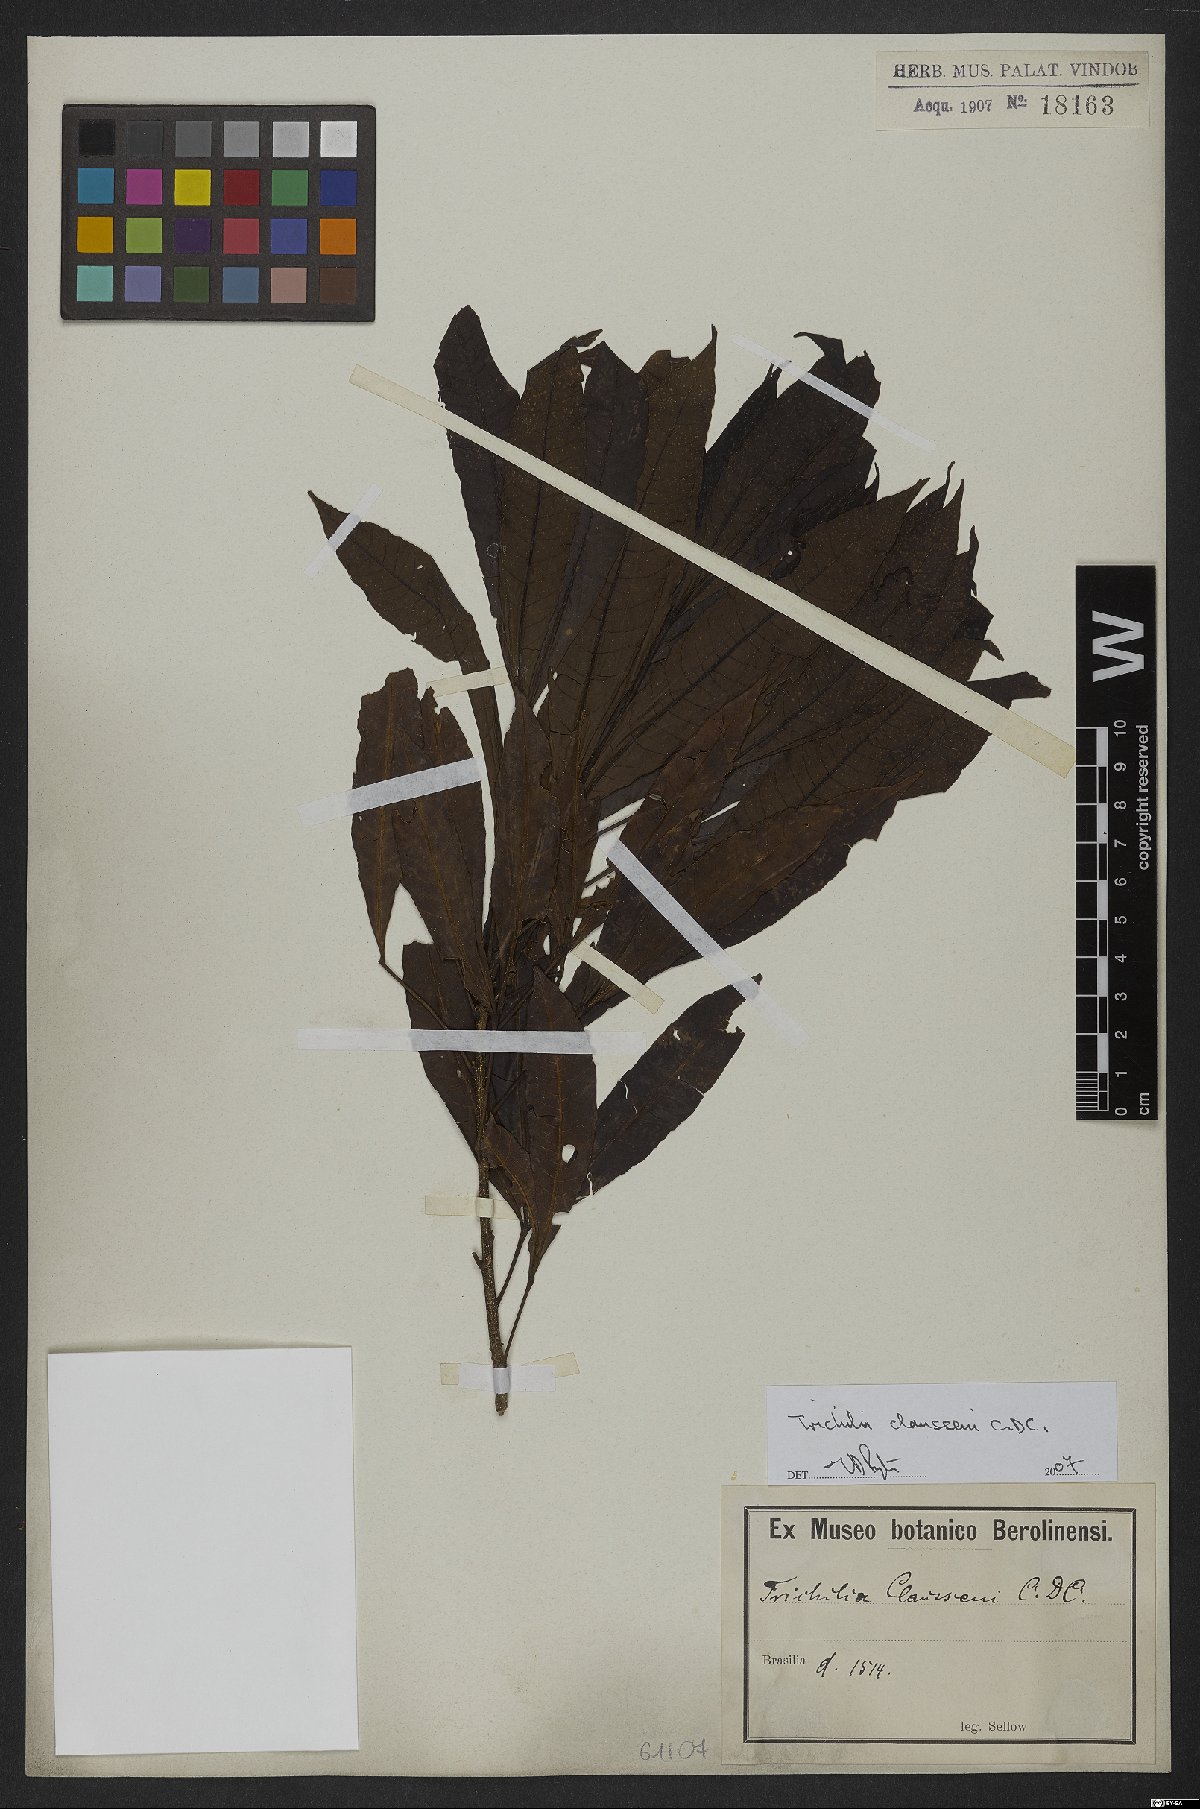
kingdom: Plantae
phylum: Tracheophyta
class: Magnoliopsida
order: Sapindales
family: Meliaceae
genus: Trichilia
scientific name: Trichilia claussenii
